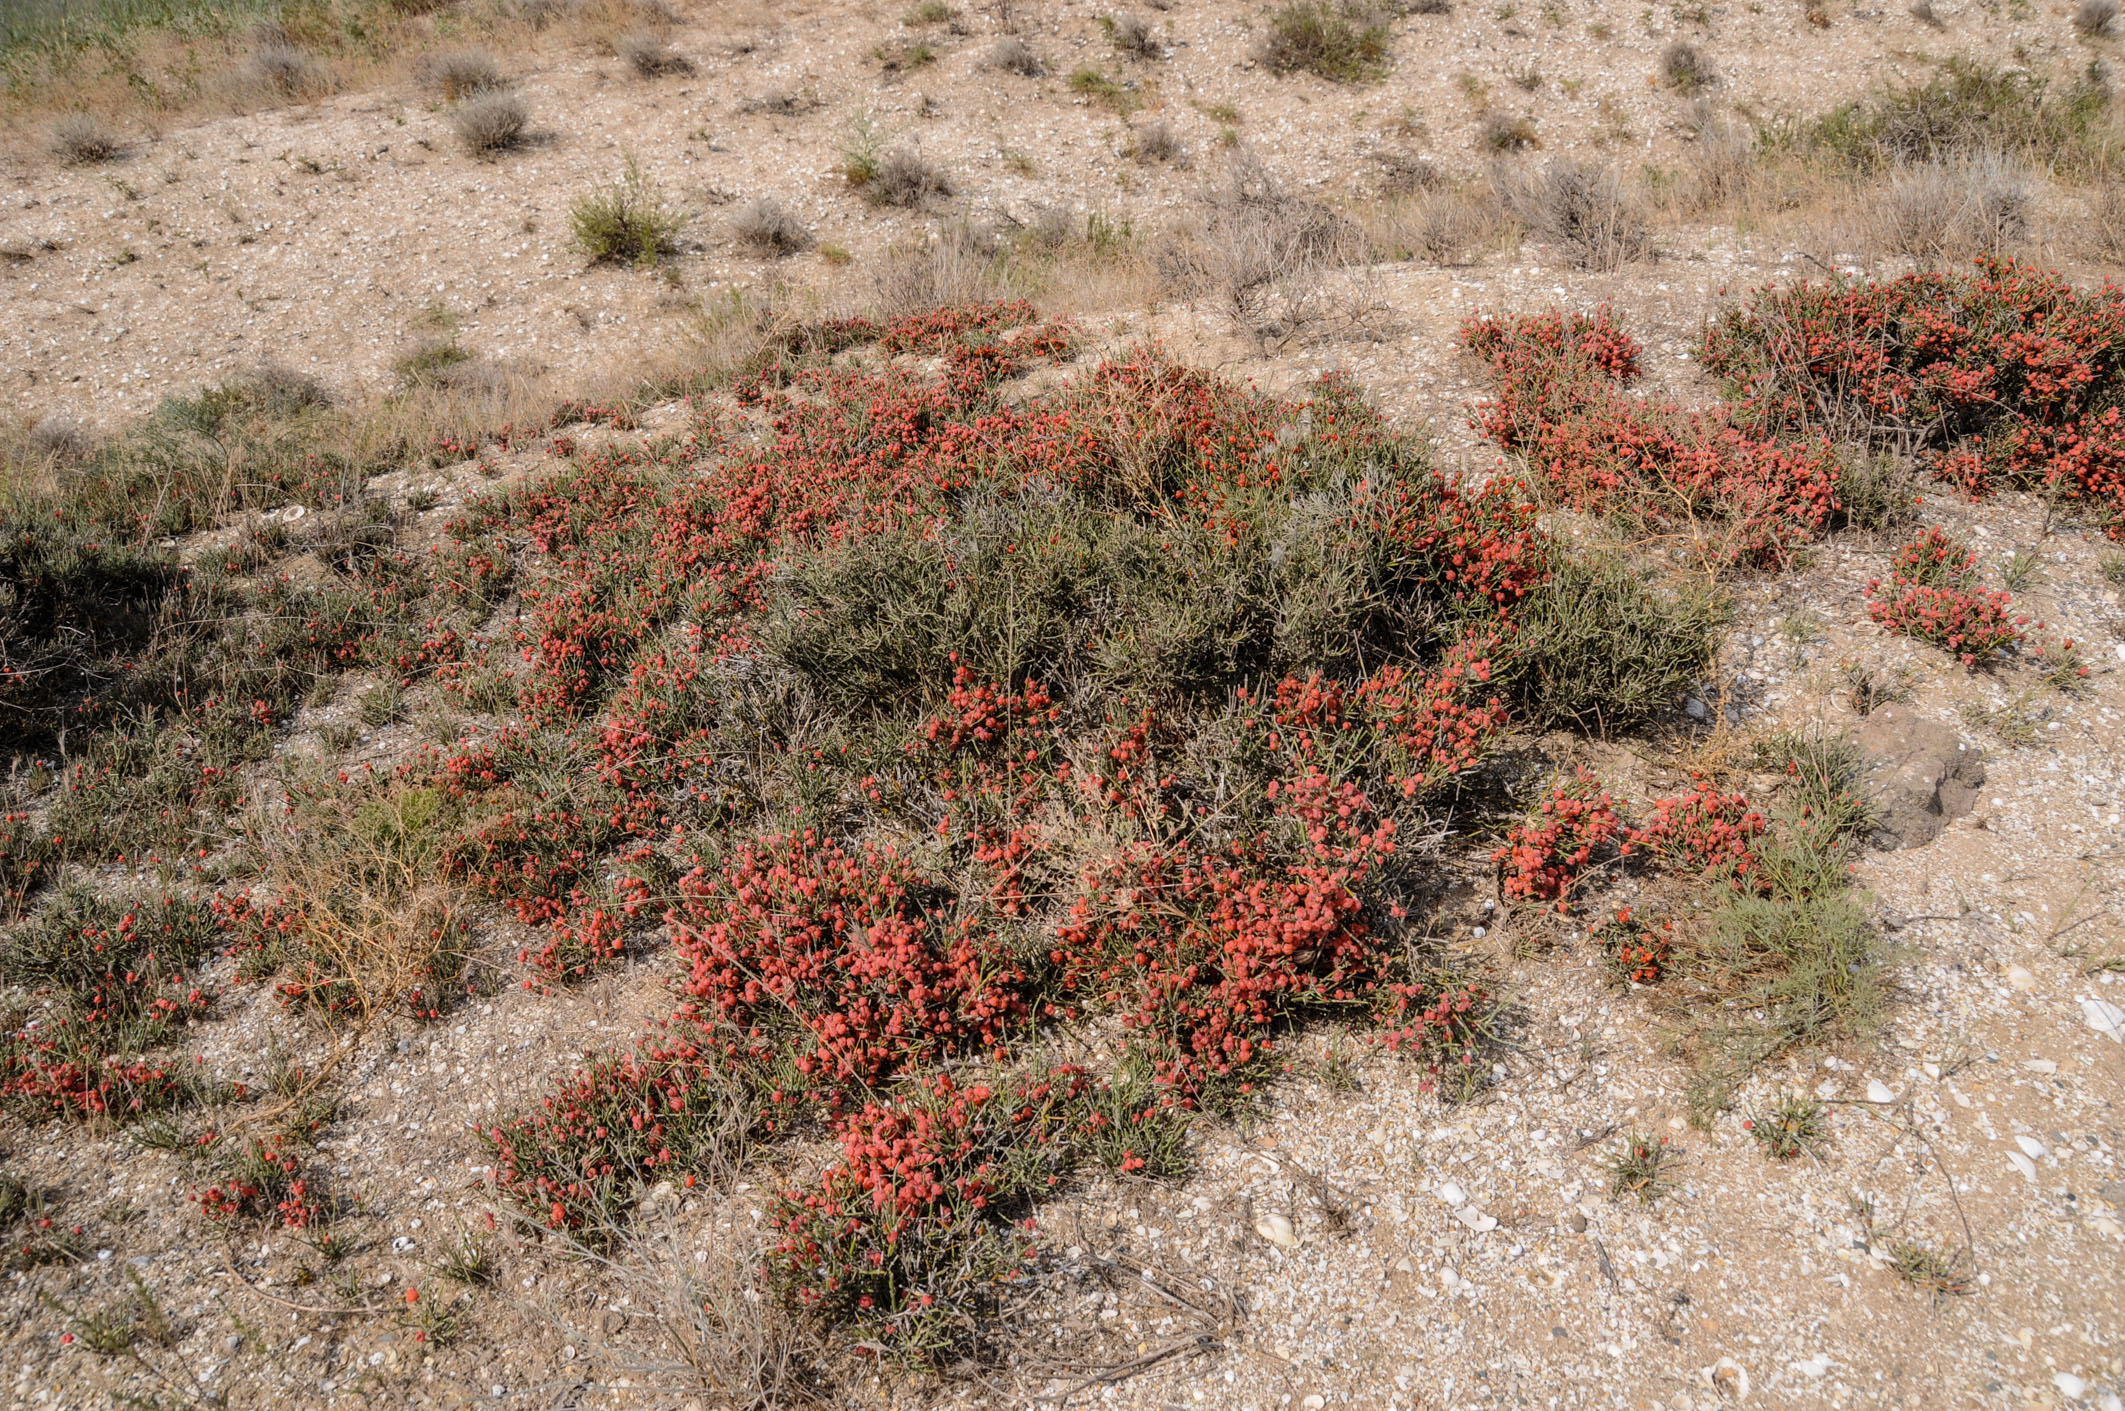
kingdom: Plantae
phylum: Tracheophyta
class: Gnetopsida
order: Ephedrales
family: Ephedraceae
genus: Ephedra
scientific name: Ephedra distachya
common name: Sea grape
